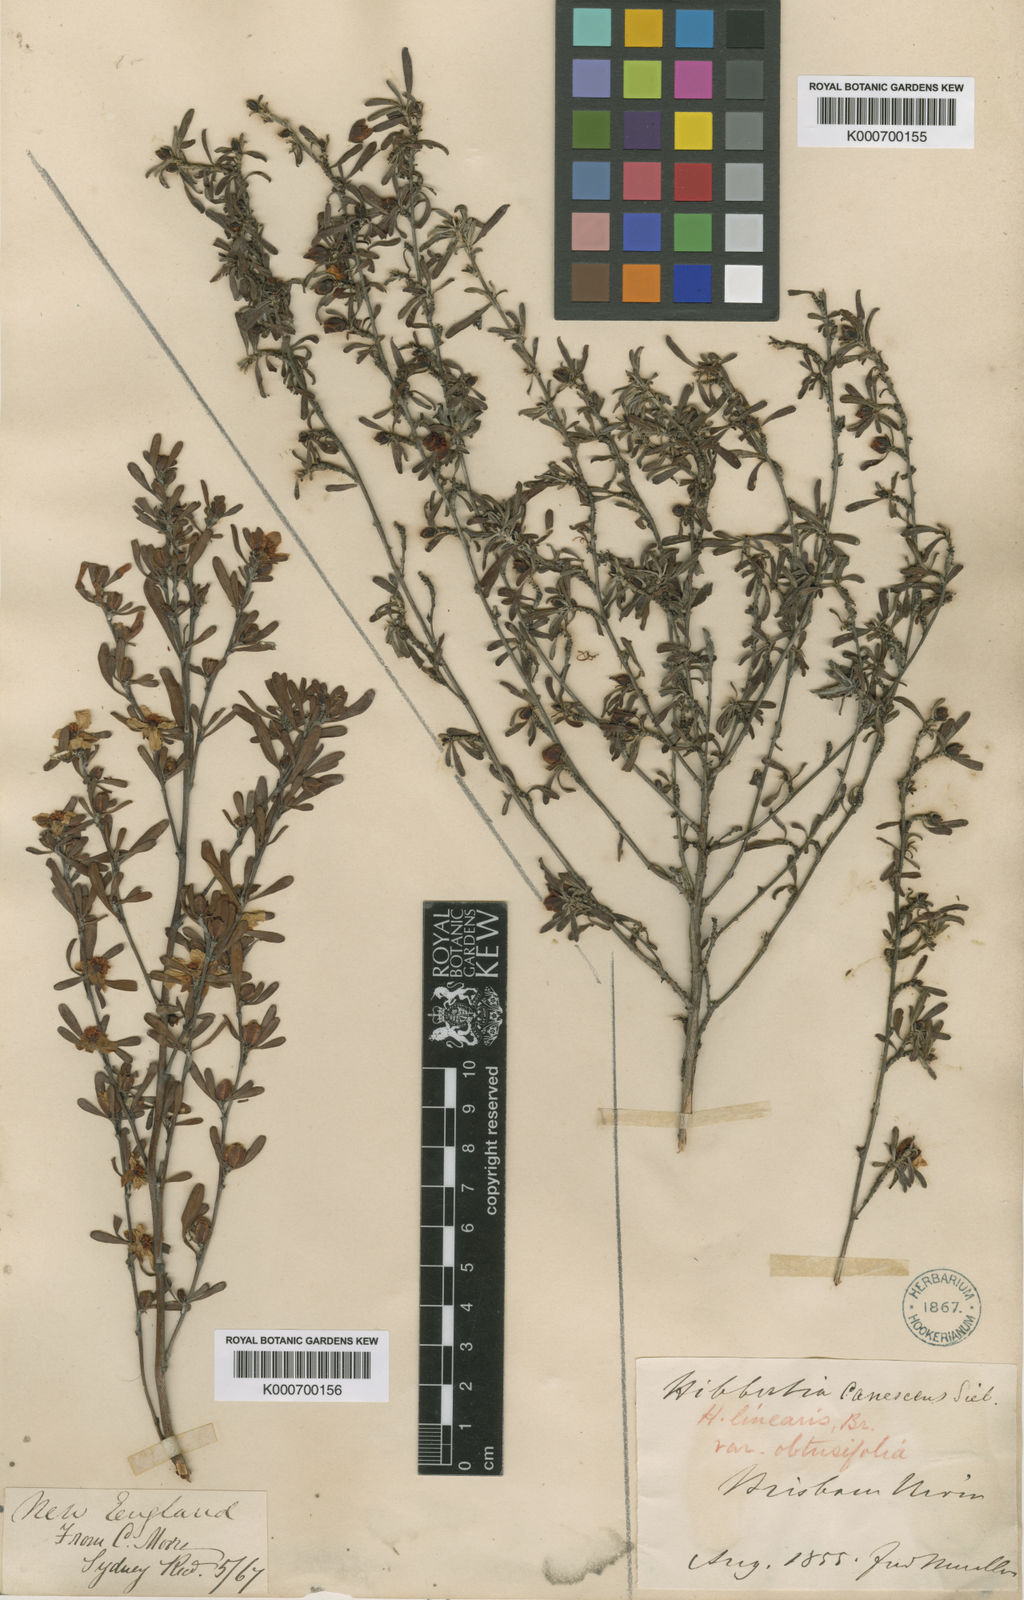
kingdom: Plantae
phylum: Tracheophyta
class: Magnoliopsida
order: Dilleniales
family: Dilleniaceae
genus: Hibbertia
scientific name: Hibbertia obtusifolia
